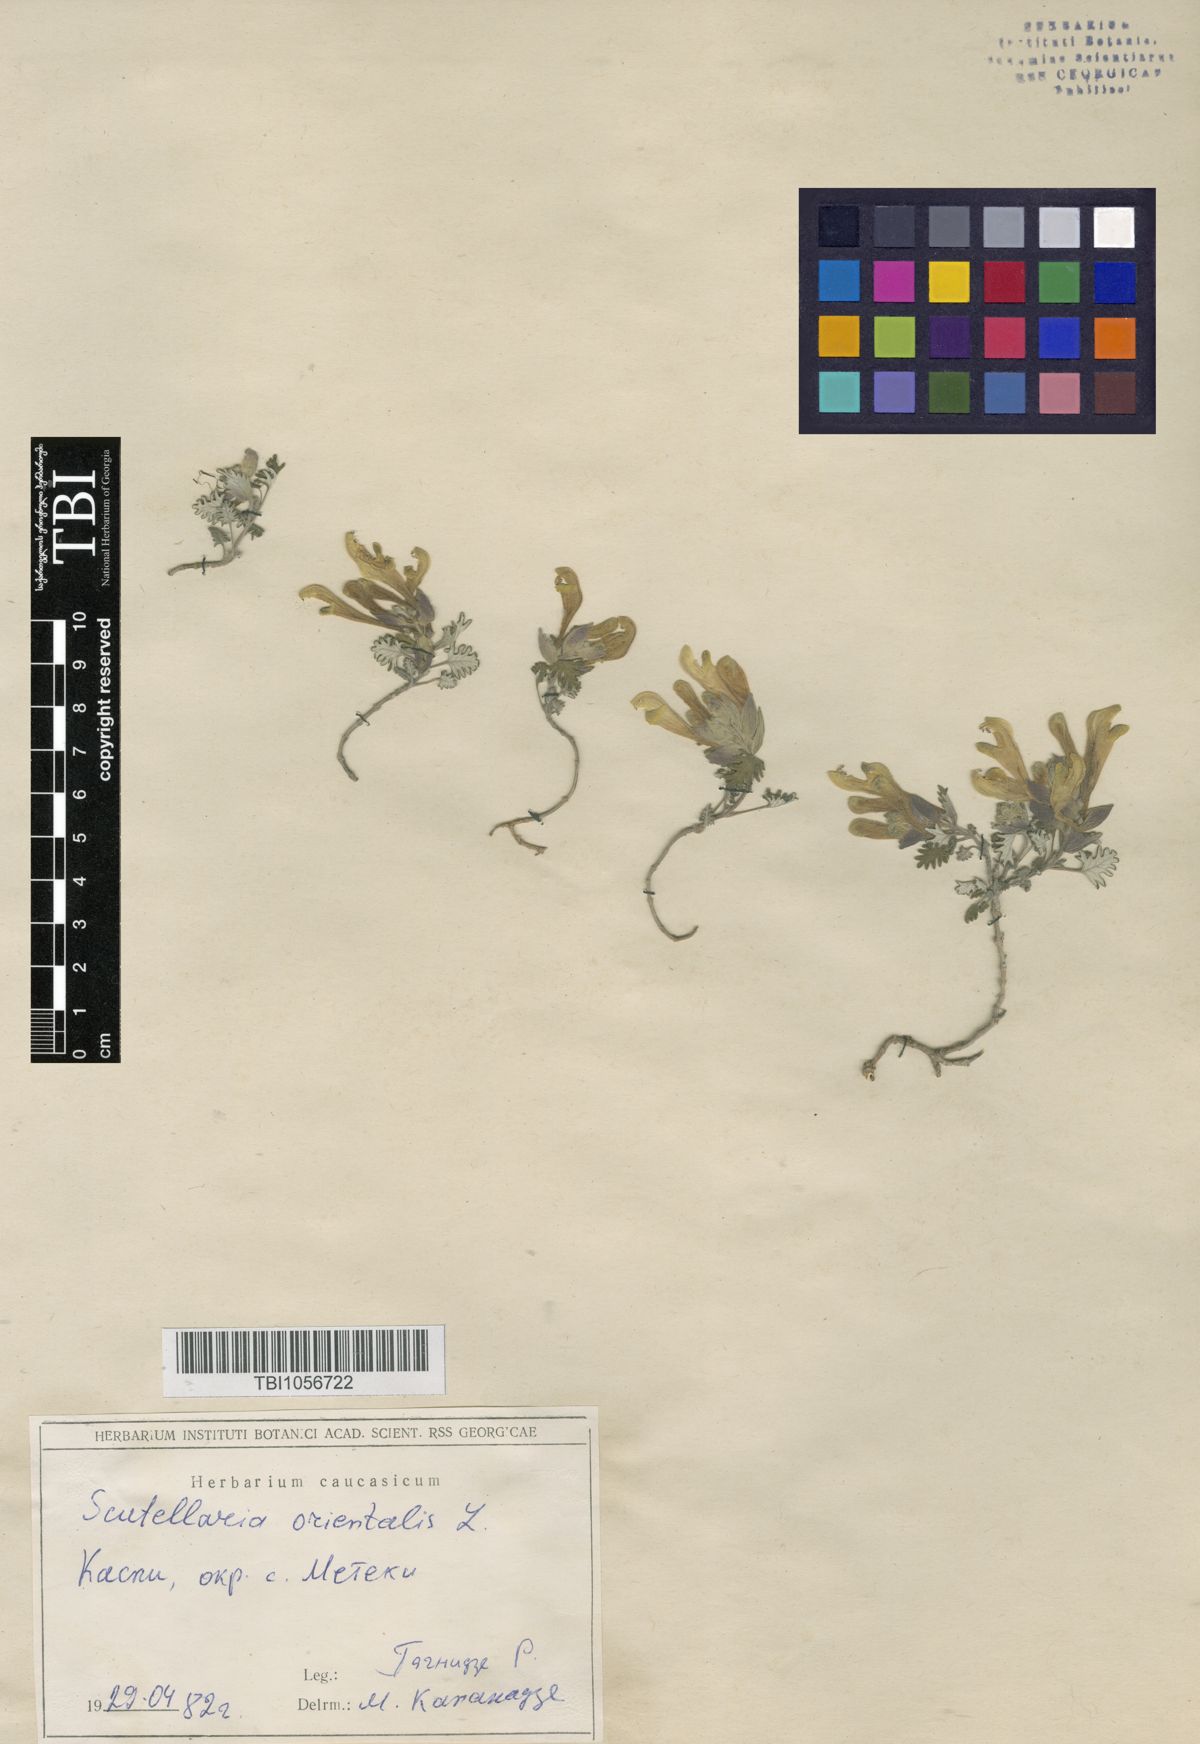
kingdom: Plantae
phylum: Tracheophyta
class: Magnoliopsida
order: Lamiales
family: Lamiaceae
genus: Scutellaria
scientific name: Scutellaria orientalis
